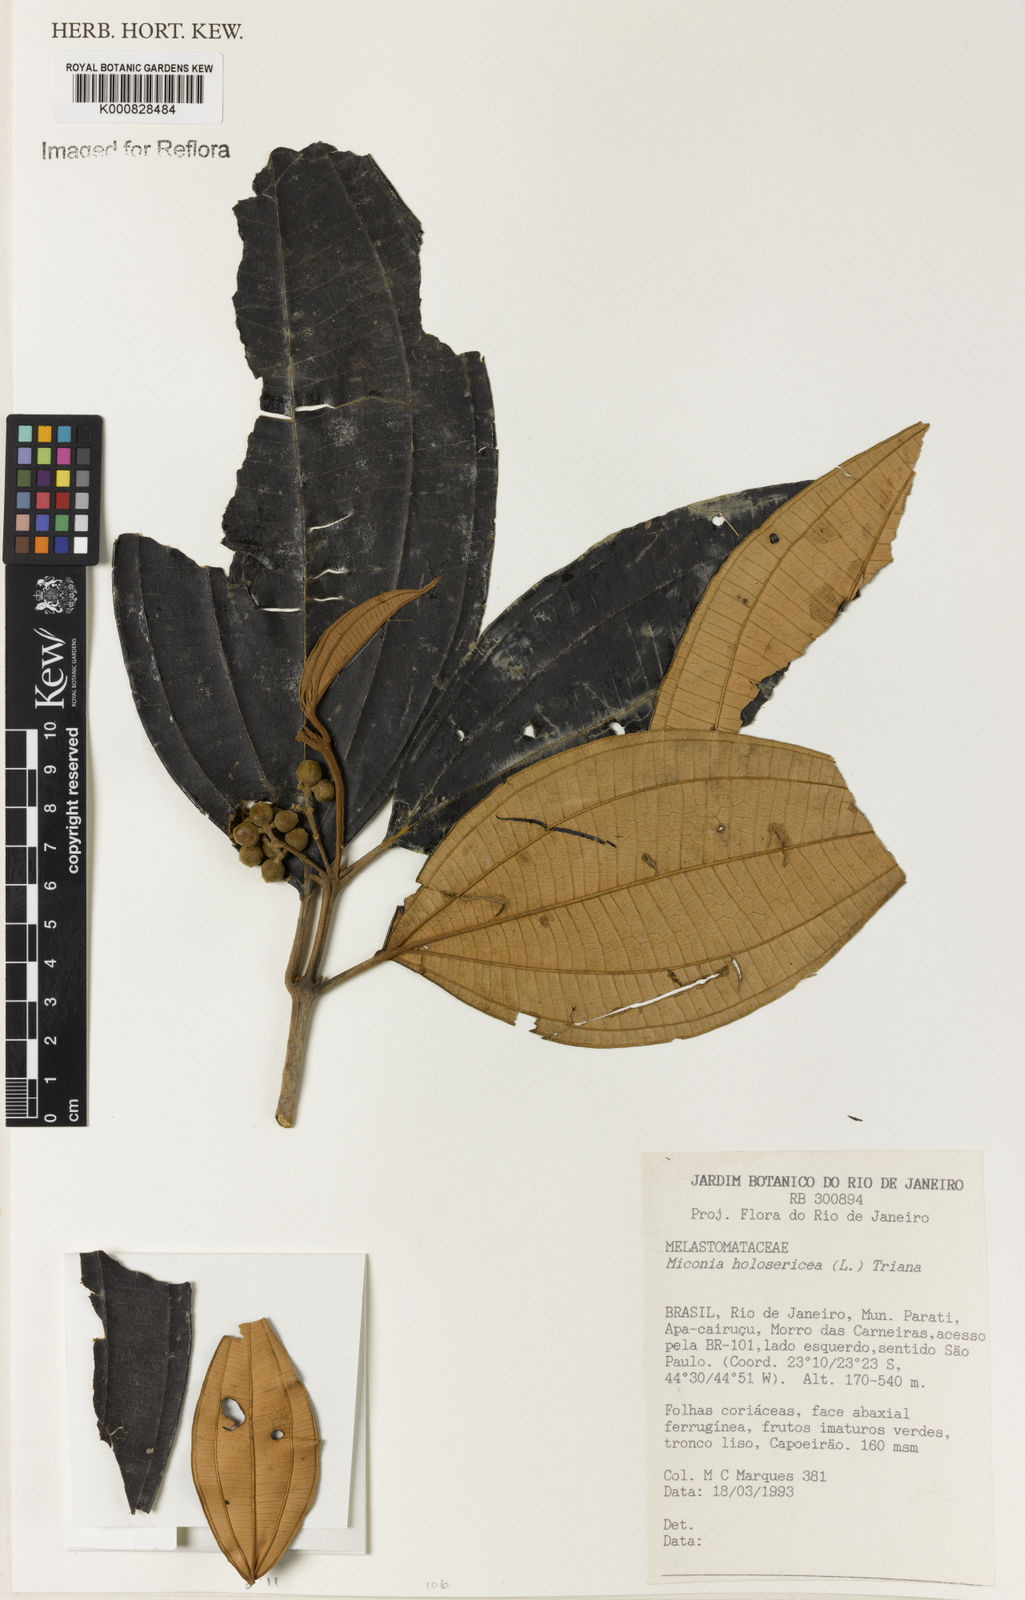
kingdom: Plantae
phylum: Tracheophyta
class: Magnoliopsida
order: Myrtales
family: Melastomataceae
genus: Miconia
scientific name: Miconia holosericea
